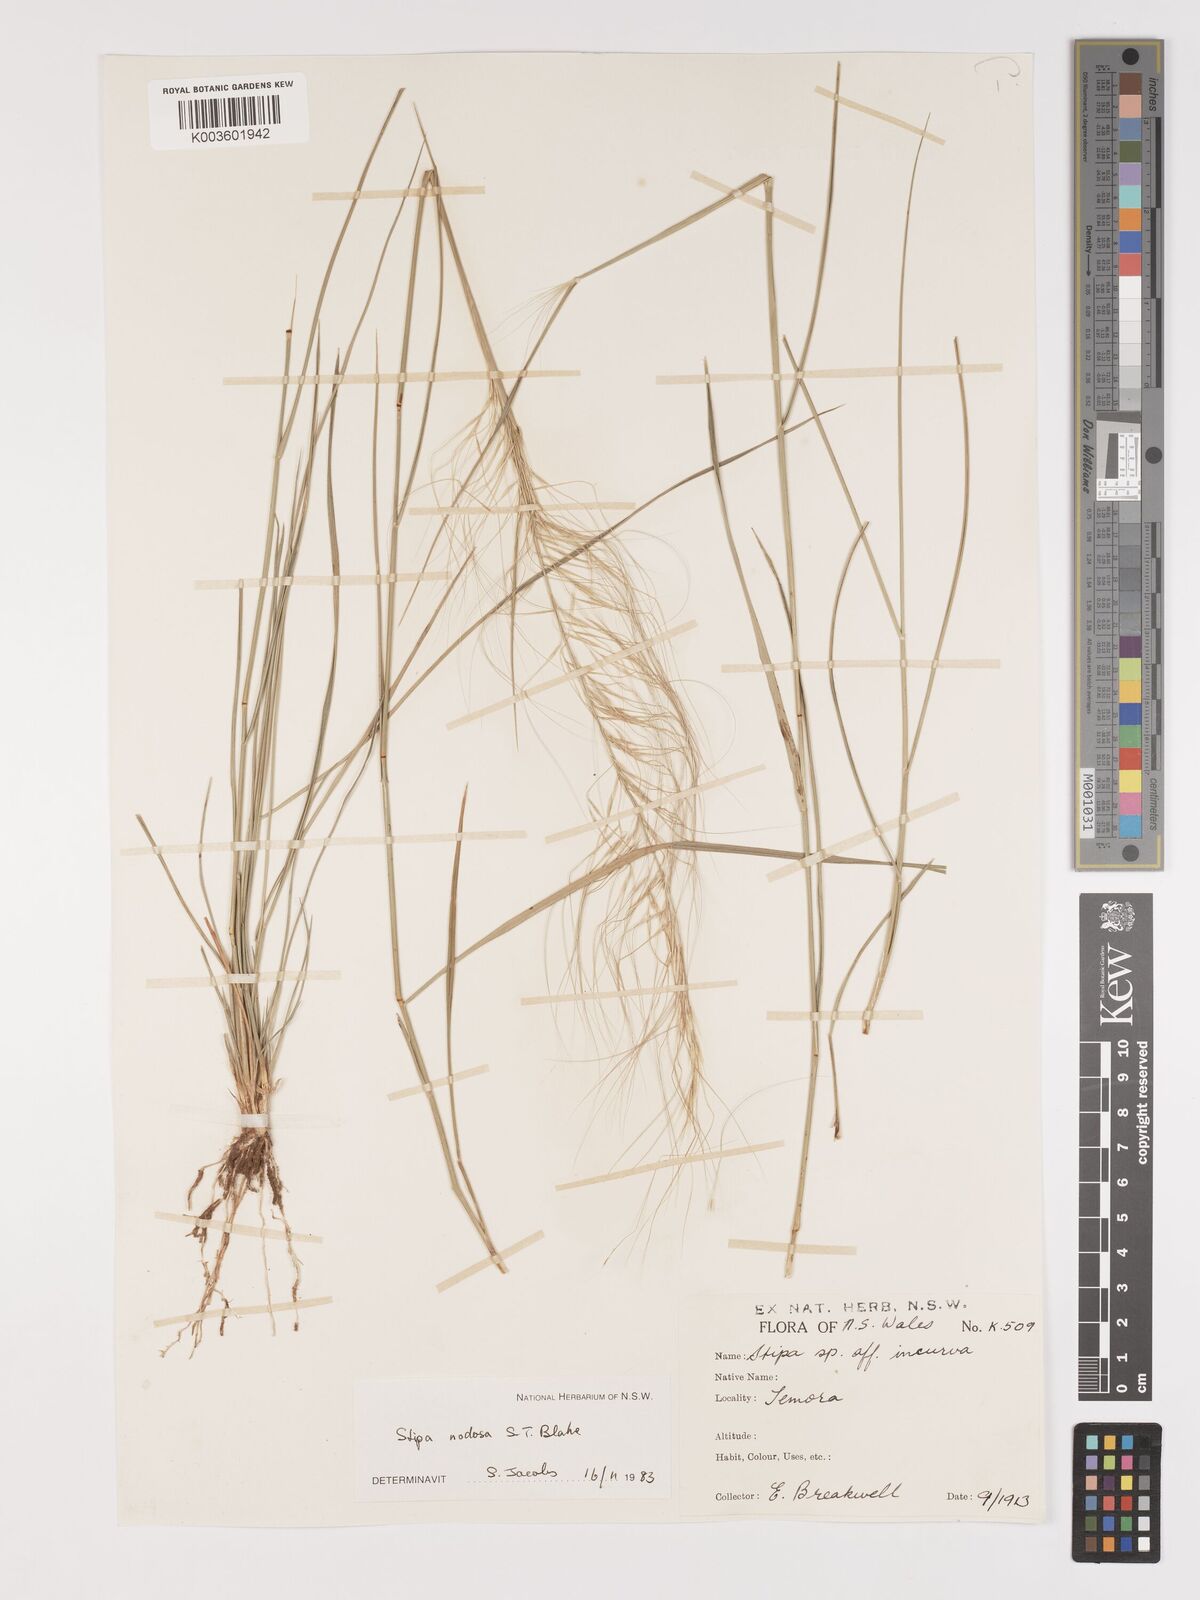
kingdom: Plantae
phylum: Tracheophyta
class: Liliopsida
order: Poales
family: Poaceae
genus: Austrostipa
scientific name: Austrostipa nodosa
